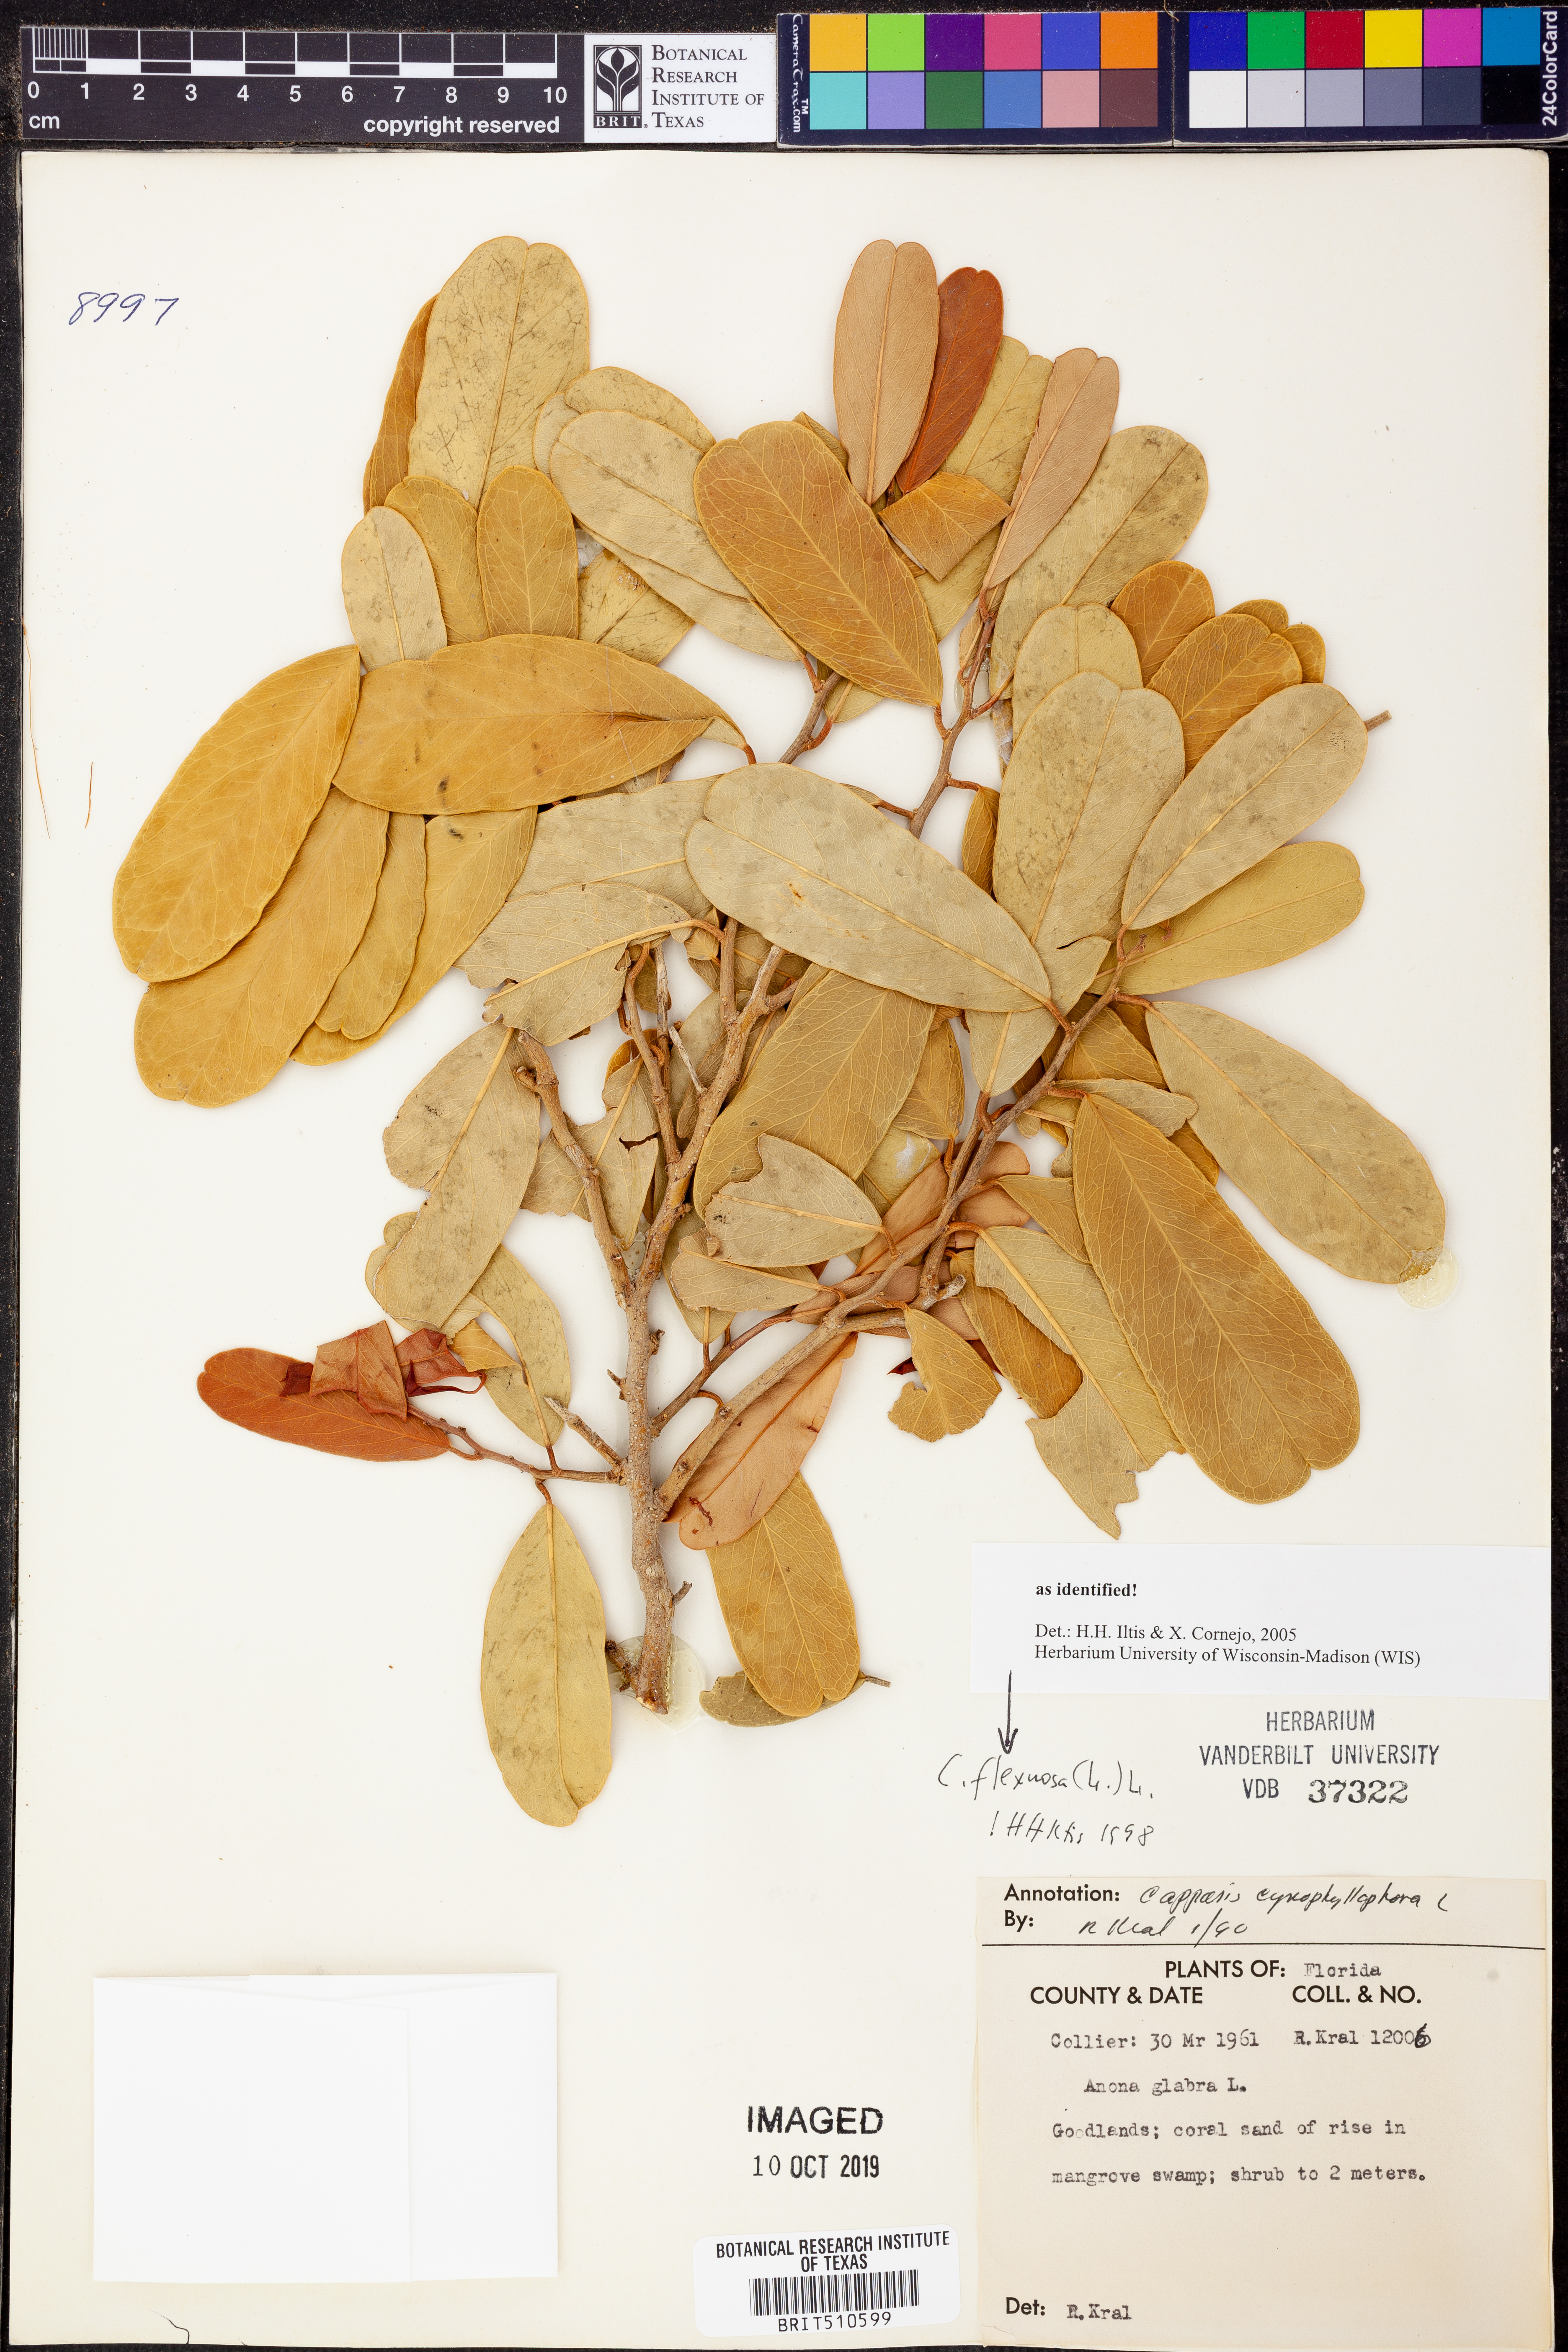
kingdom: Plantae
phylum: Tracheophyta
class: Magnoliopsida
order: Brassicales
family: Capparaceae
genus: Capparidastrum
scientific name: Capparidastrum frondosum
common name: Church blossom
